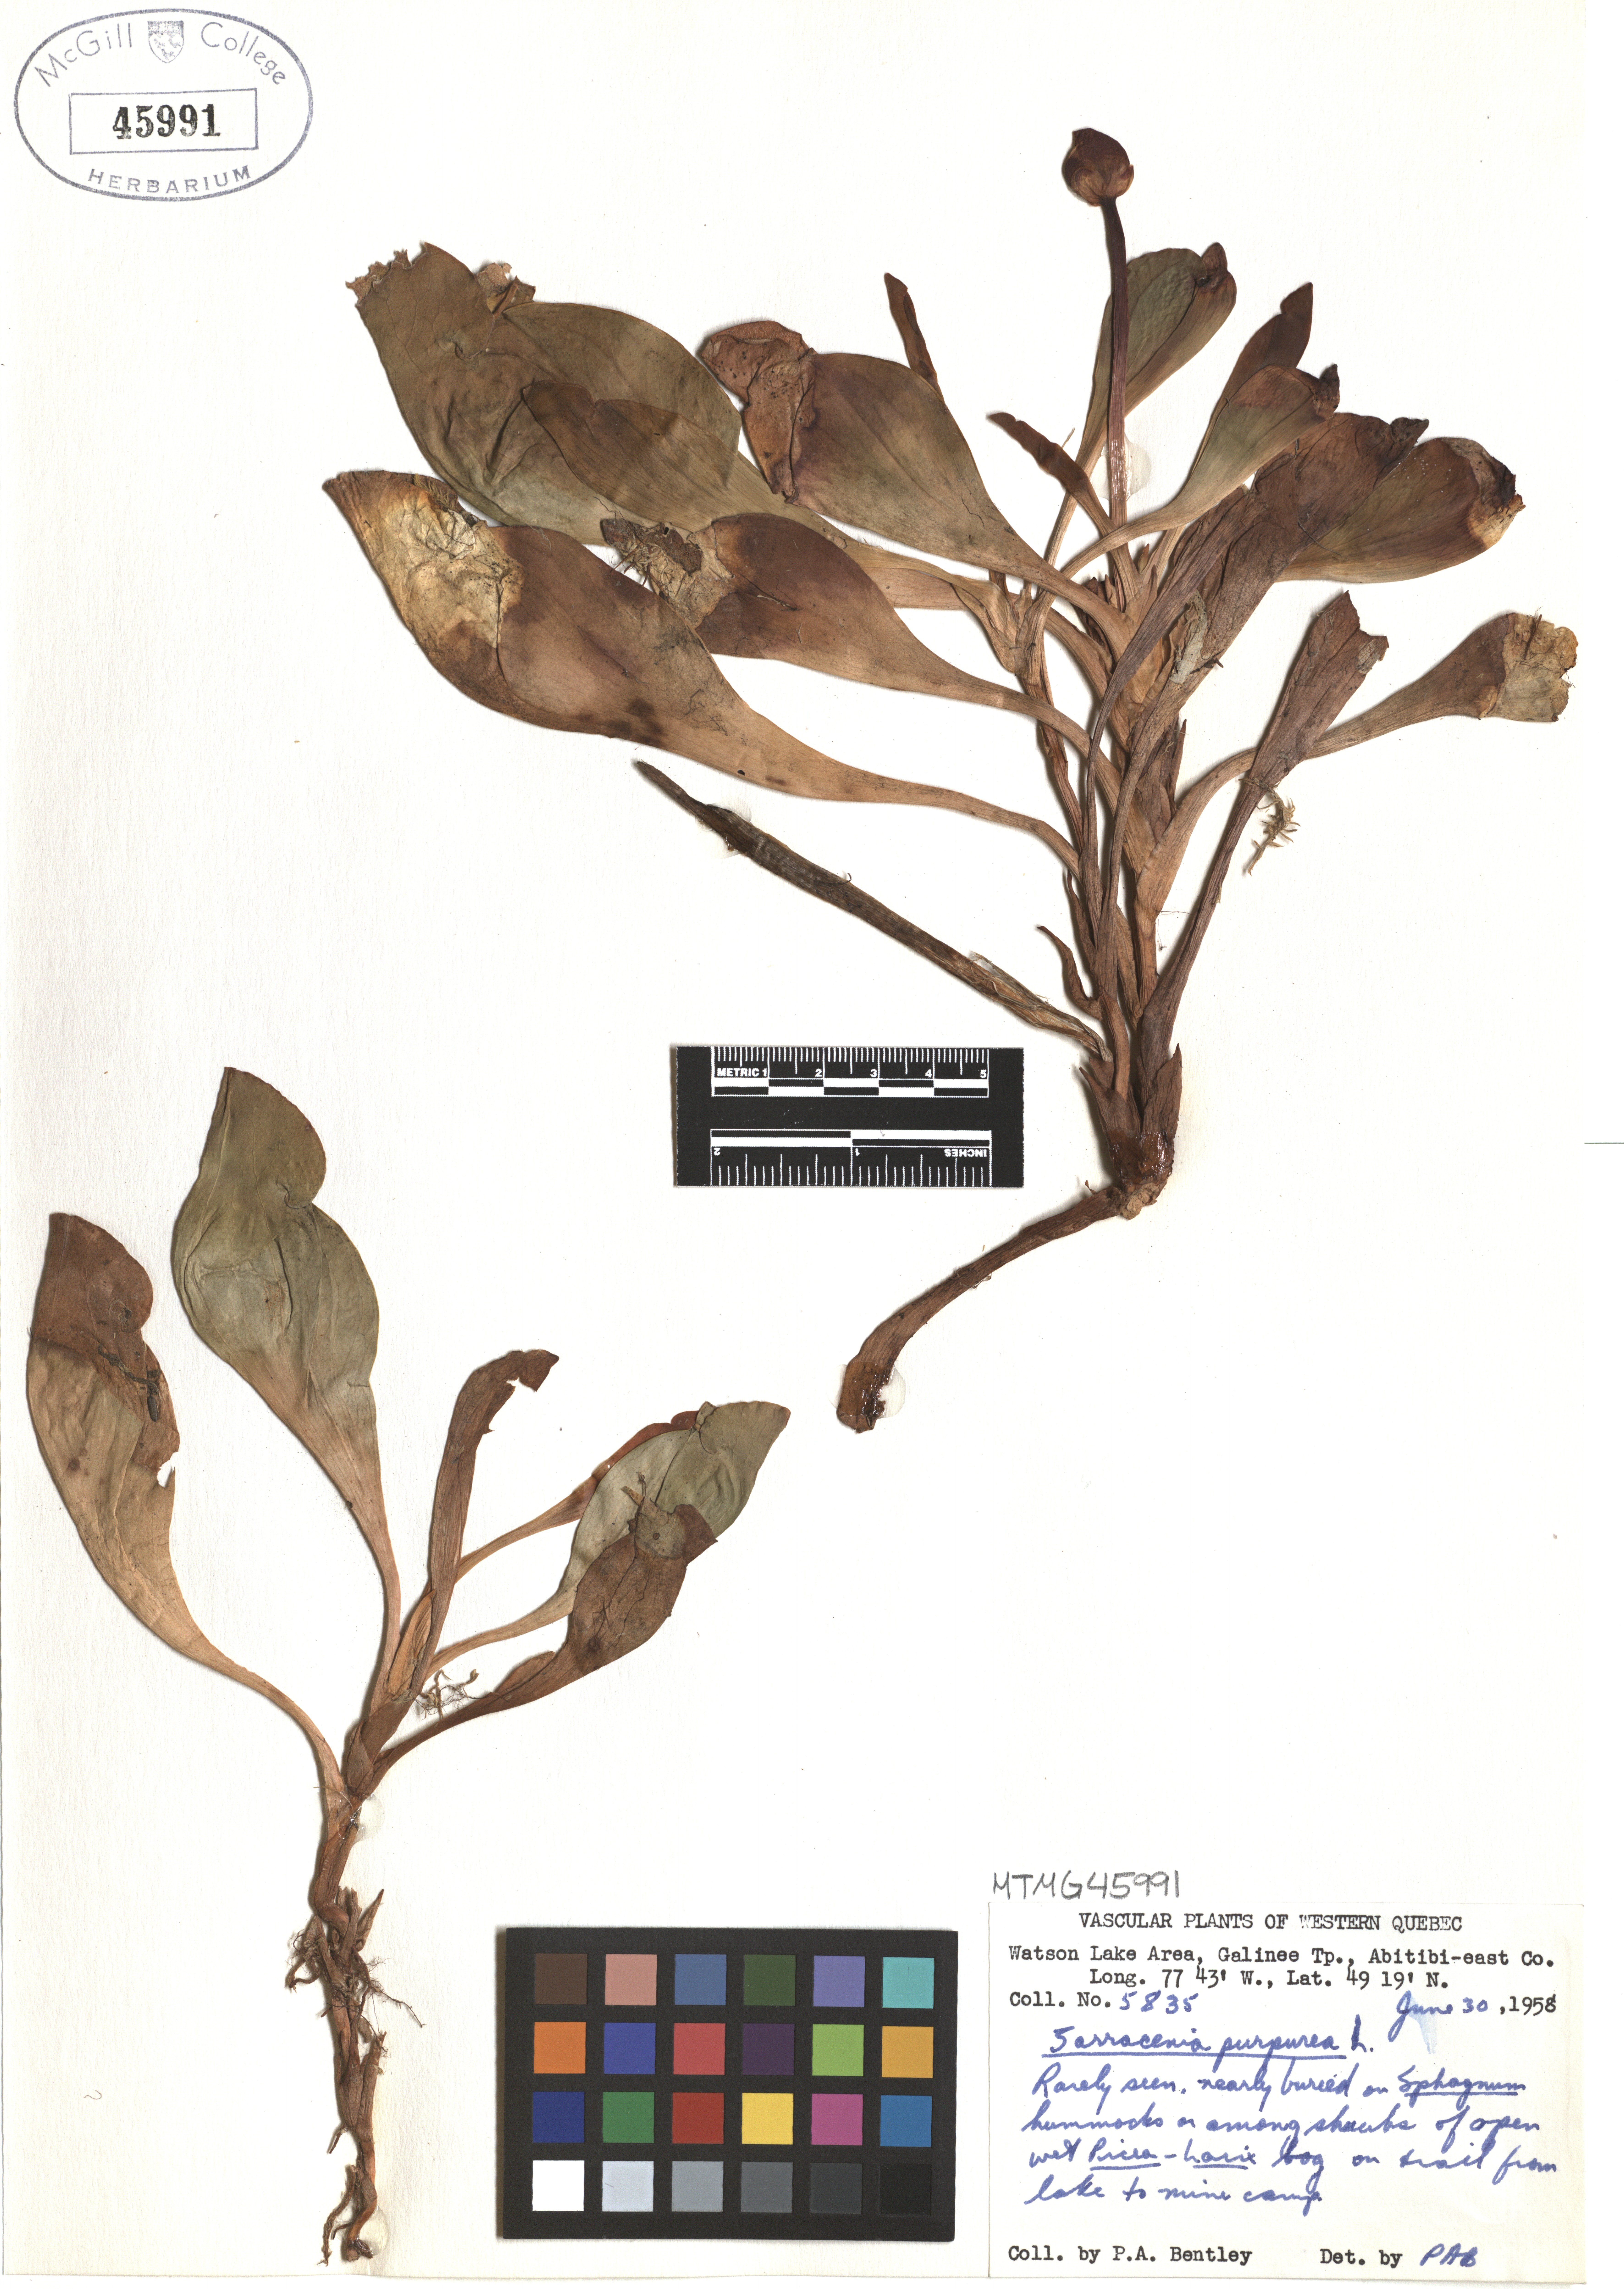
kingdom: Plantae
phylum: Tracheophyta
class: Magnoliopsida
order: Ericales
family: Sarraceniaceae
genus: Sarracenia
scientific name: Sarracenia purpurea
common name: Pitcherplant
